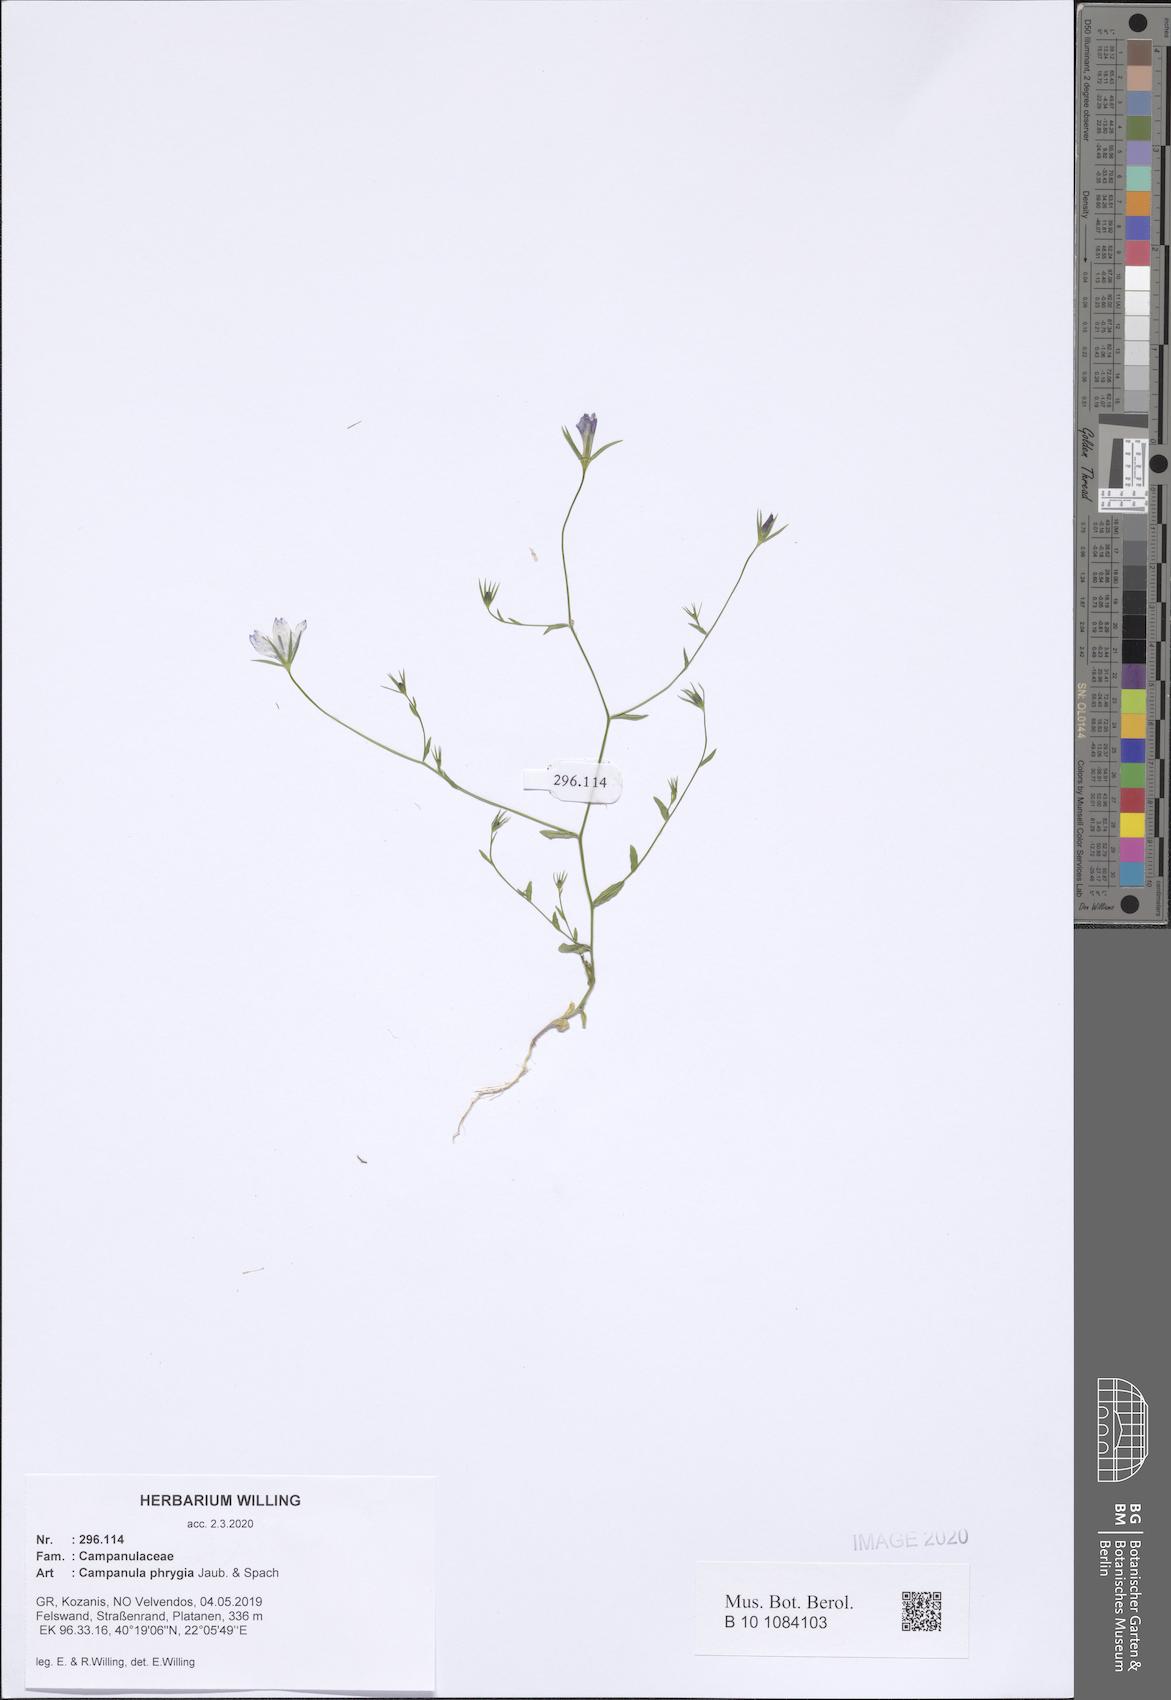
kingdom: Plantae
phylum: Tracheophyta
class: Magnoliopsida
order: Asterales
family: Campanulaceae
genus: Campanula
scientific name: Campanula phrygia
